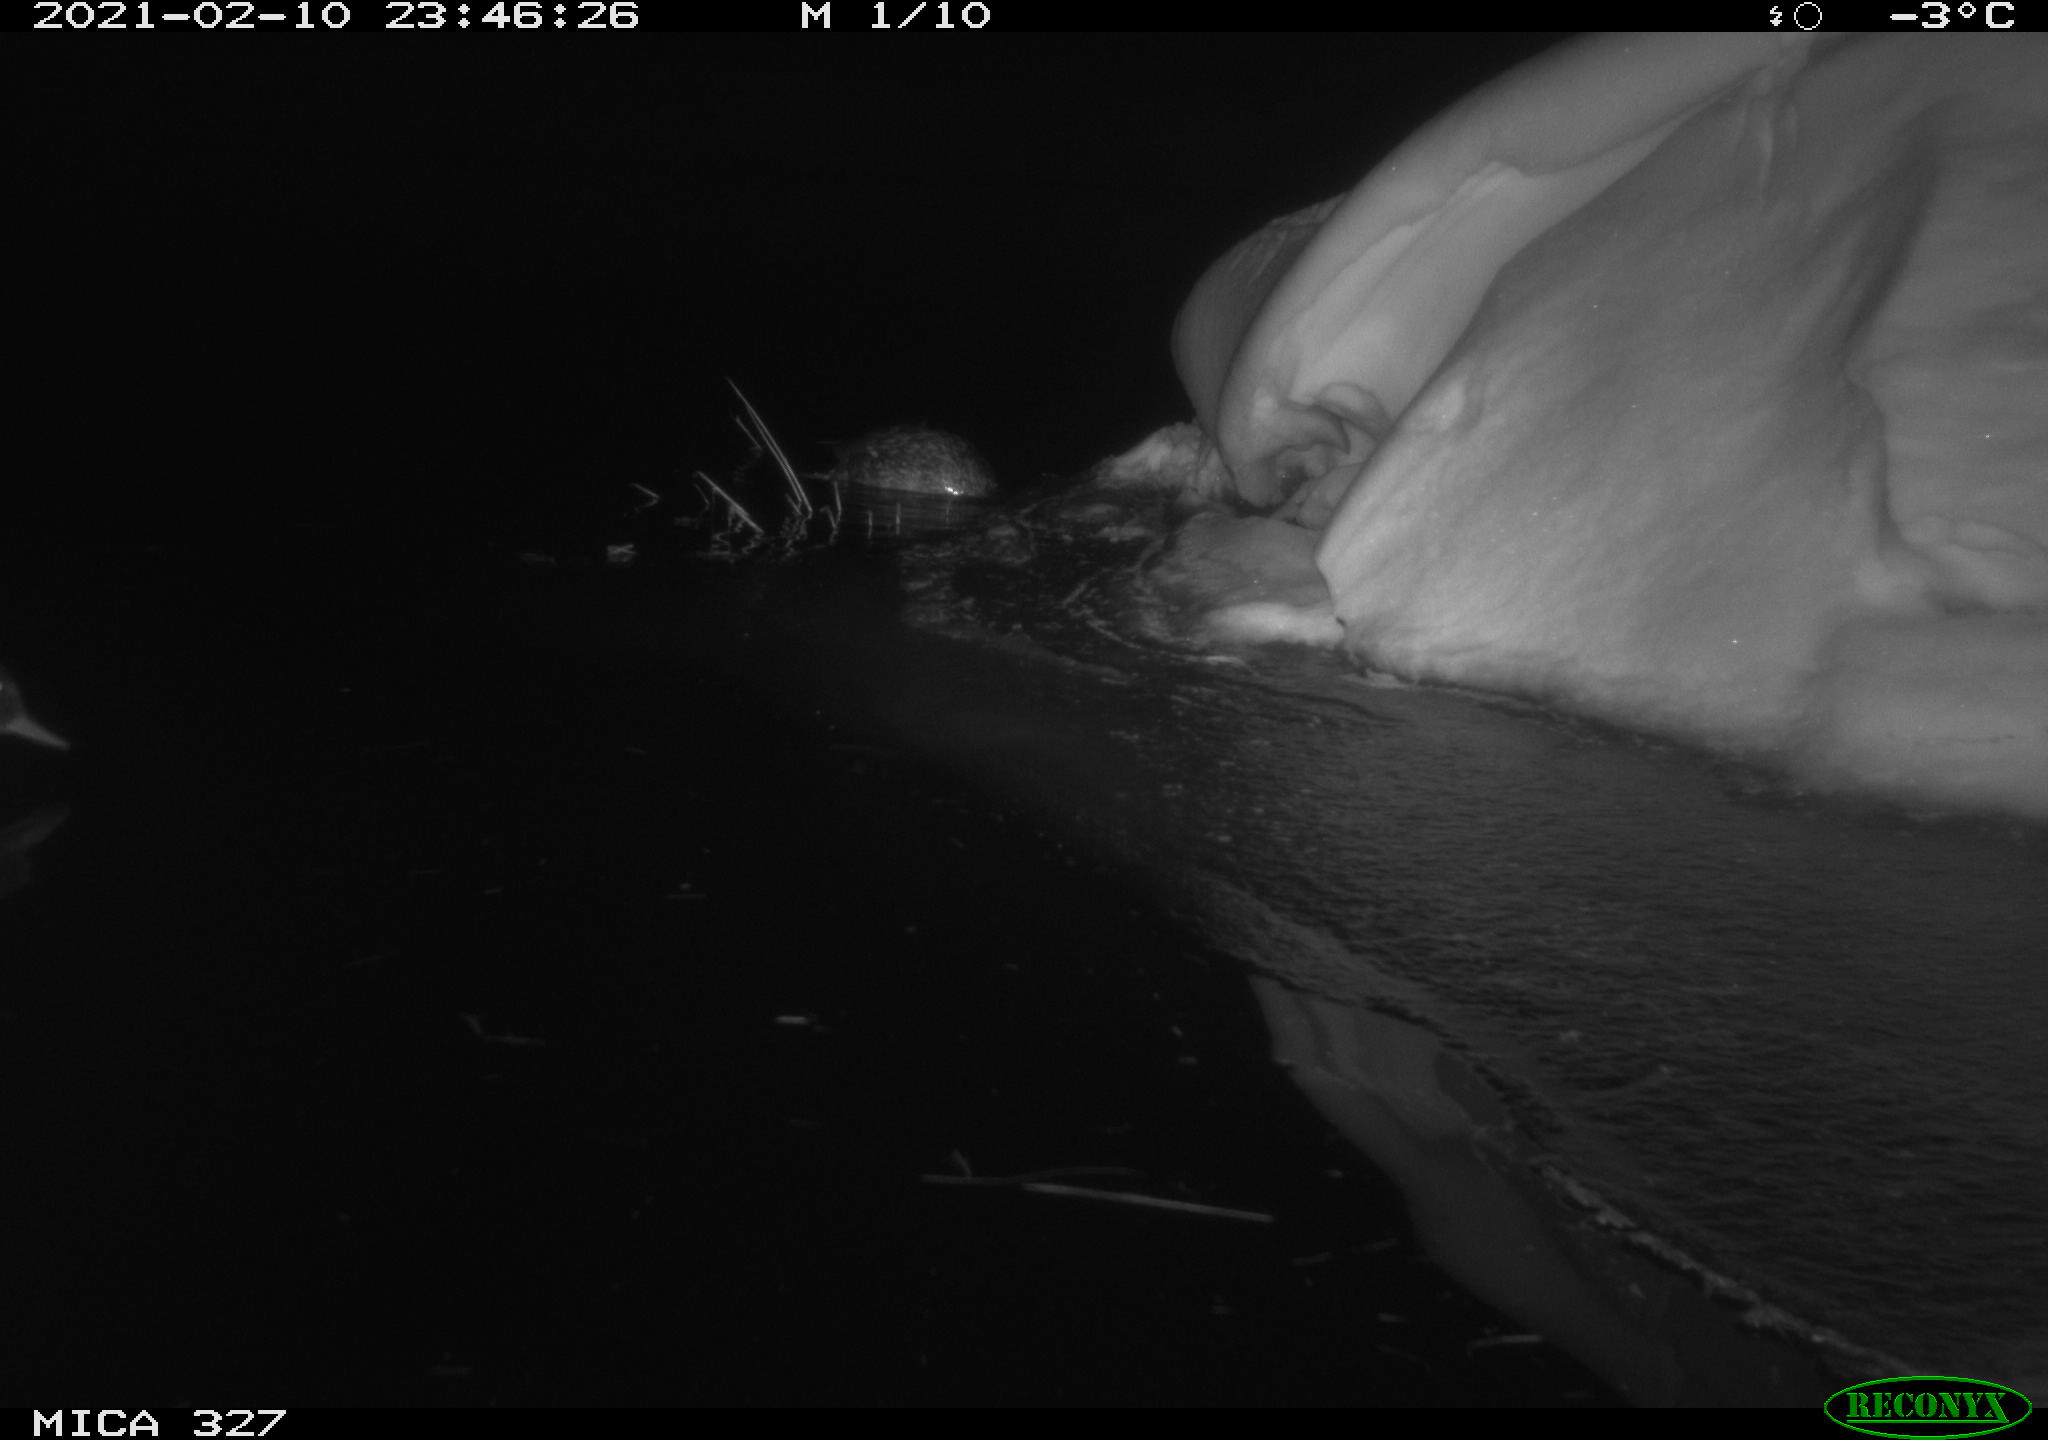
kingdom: Animalia
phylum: Chordata
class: Aves
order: Anseriformes
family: Anatidae
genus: Anas
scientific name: Anas
